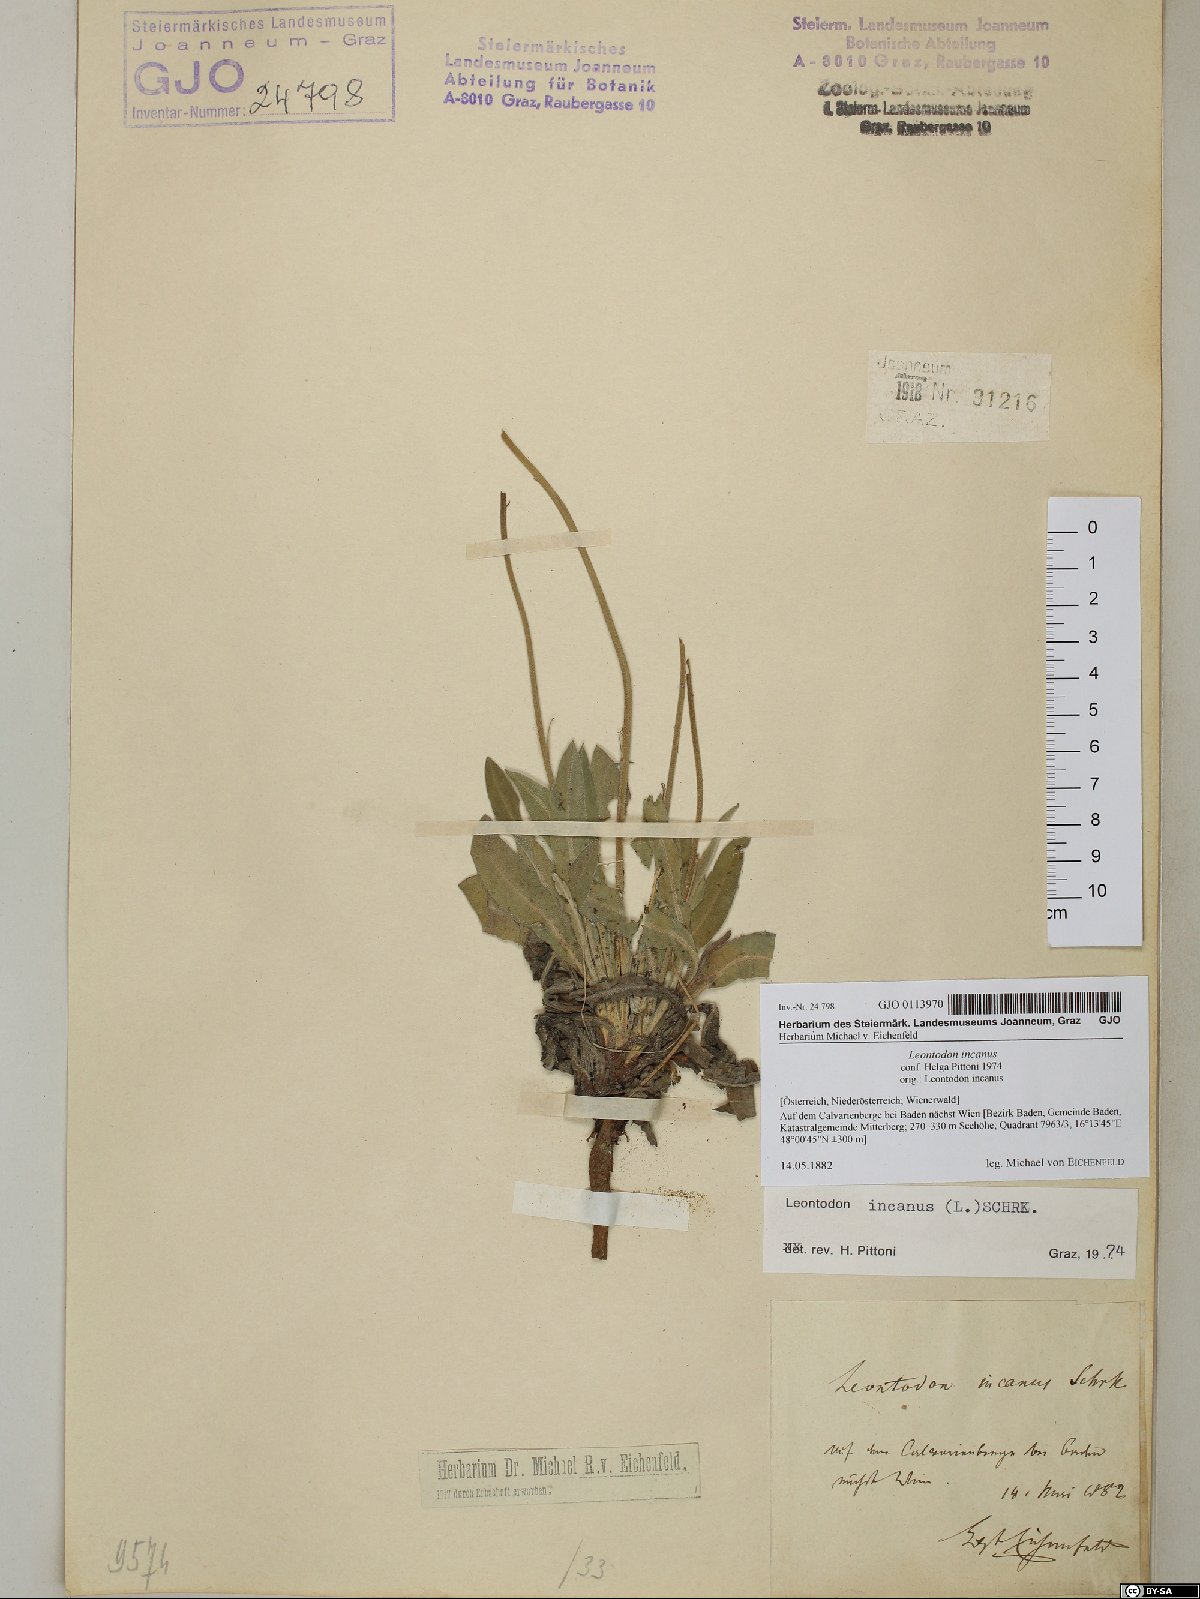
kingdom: Plantae
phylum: Tracheophyta
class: Magnoliopsida
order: Asterales
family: Asteraceae
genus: Leontodon
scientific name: Leontodon incanus
